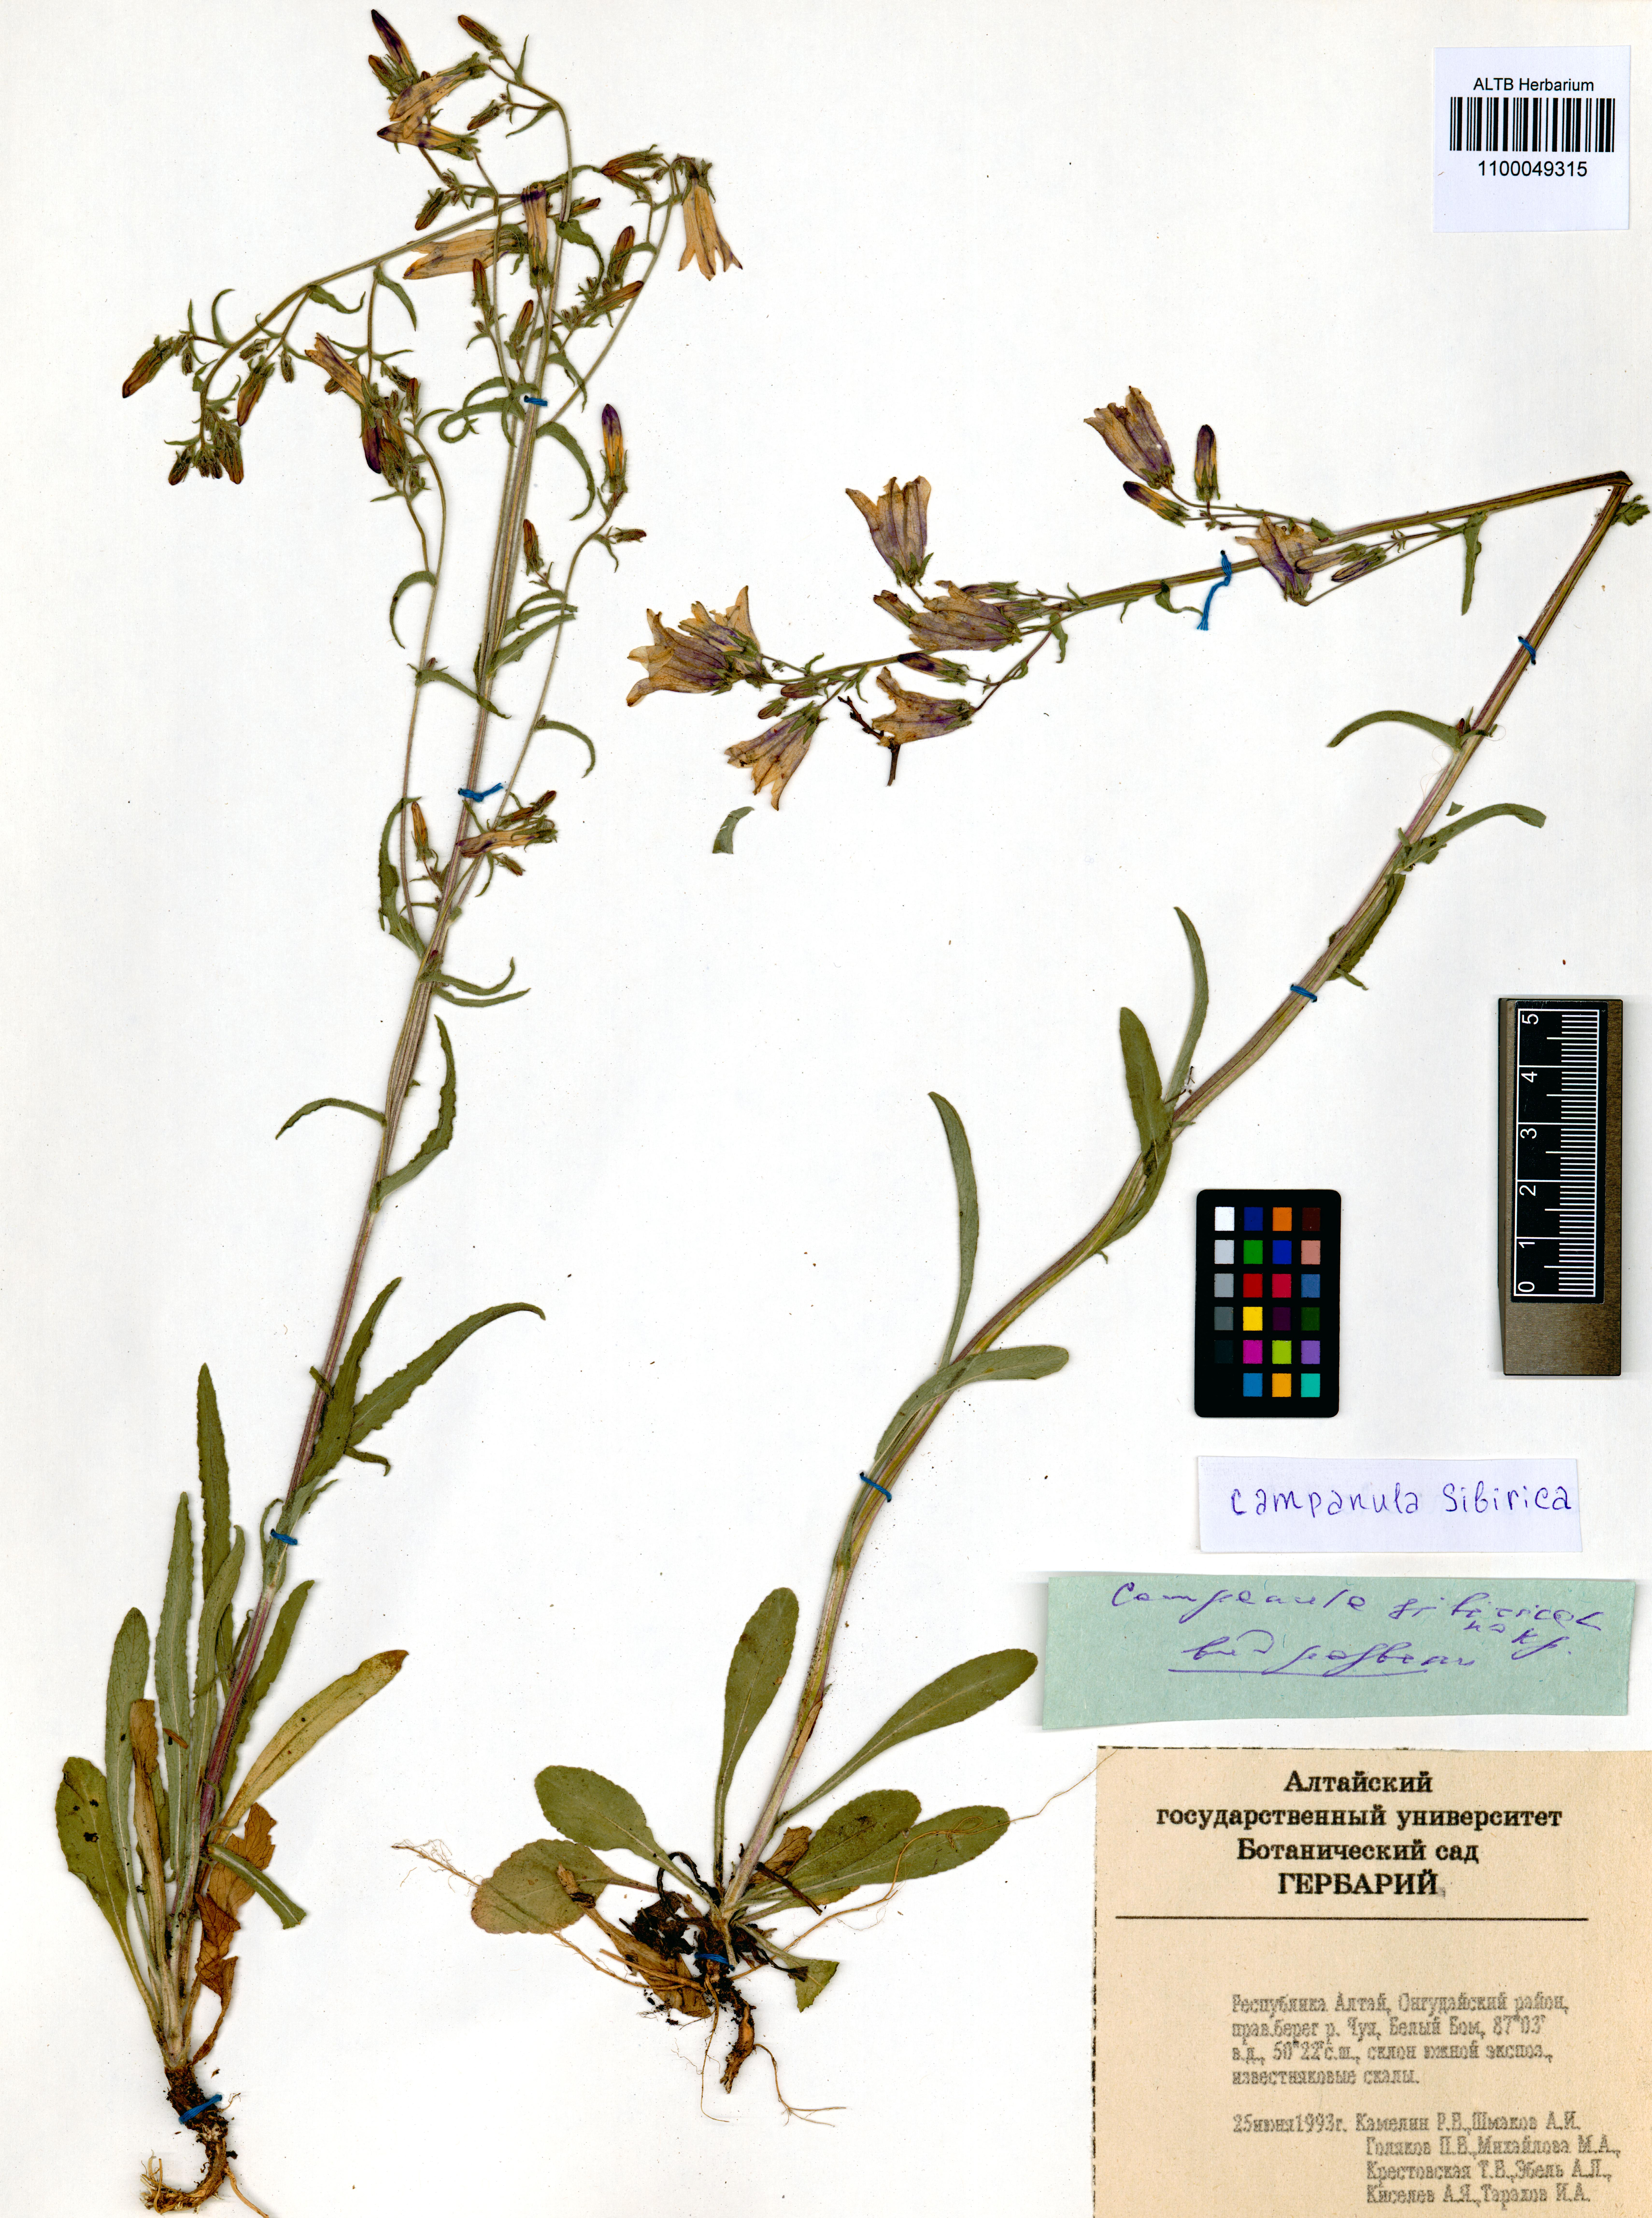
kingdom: Plantae
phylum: Tracheophyta
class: Magnoliopsida
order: Asterales
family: Campanulaceae
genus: Campanula
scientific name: Campanula sibirica
